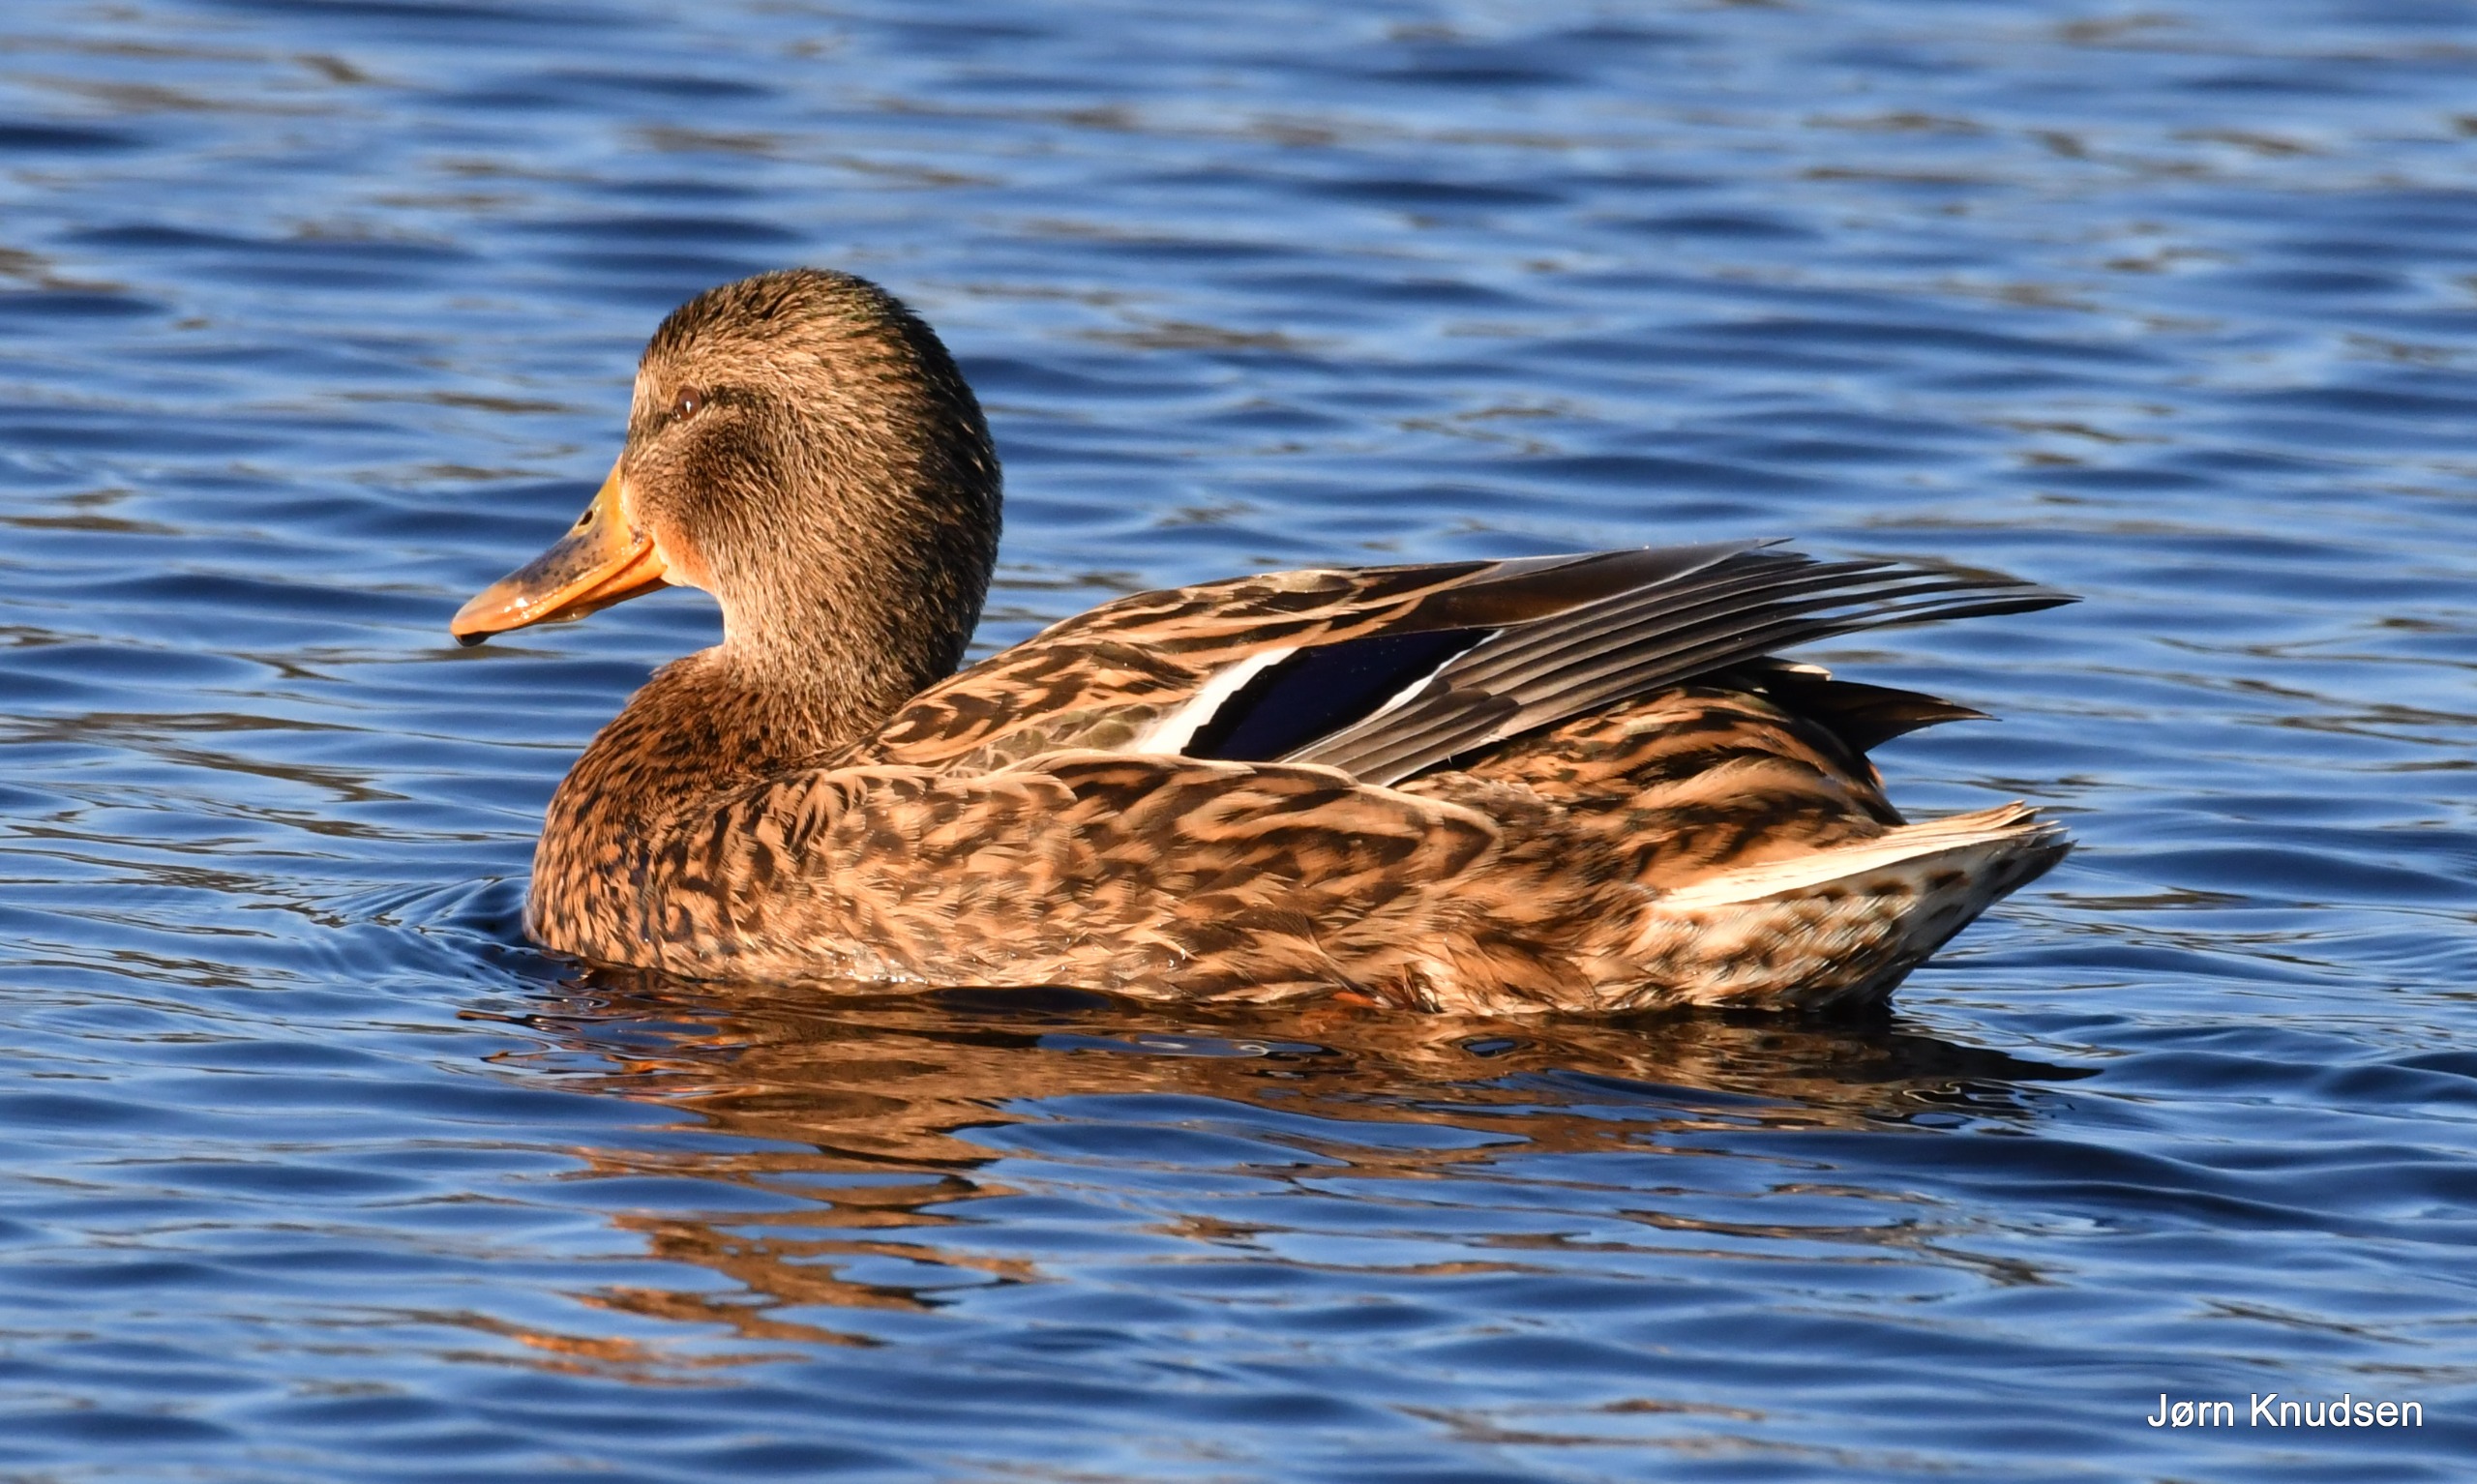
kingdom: Animalia
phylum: Chordata
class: Aves
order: Anseriformes
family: Anatidae
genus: Anas
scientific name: Anas platyrhynchos
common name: Gråand
